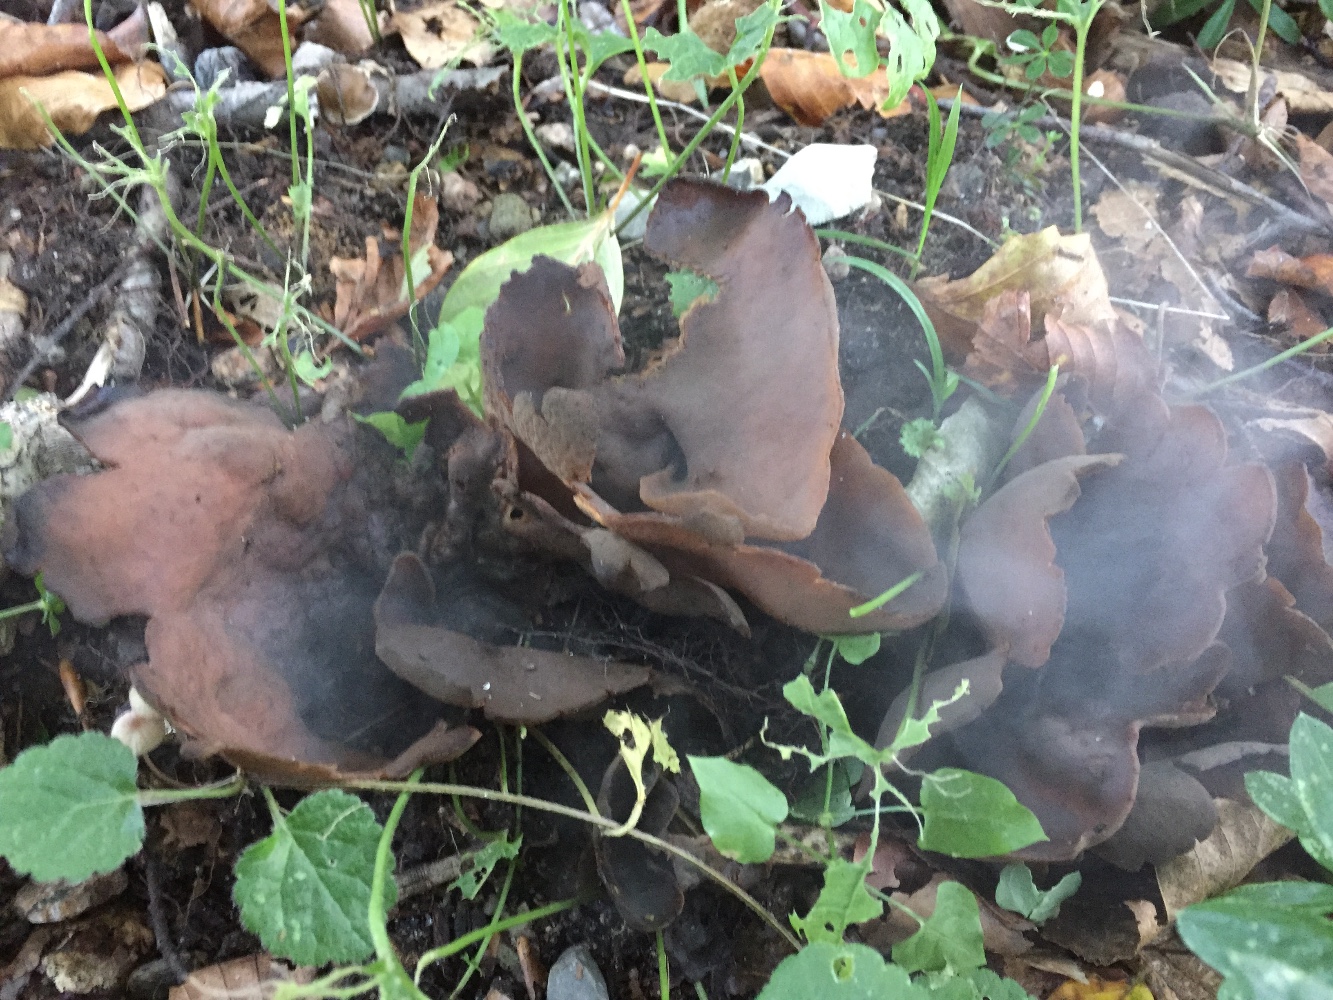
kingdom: Fungi
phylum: Ascomycota
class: Pezizomycetes
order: Pezizales
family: Otideaceae
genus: Otidea
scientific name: Otidea bufonia
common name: brun ørebæger
